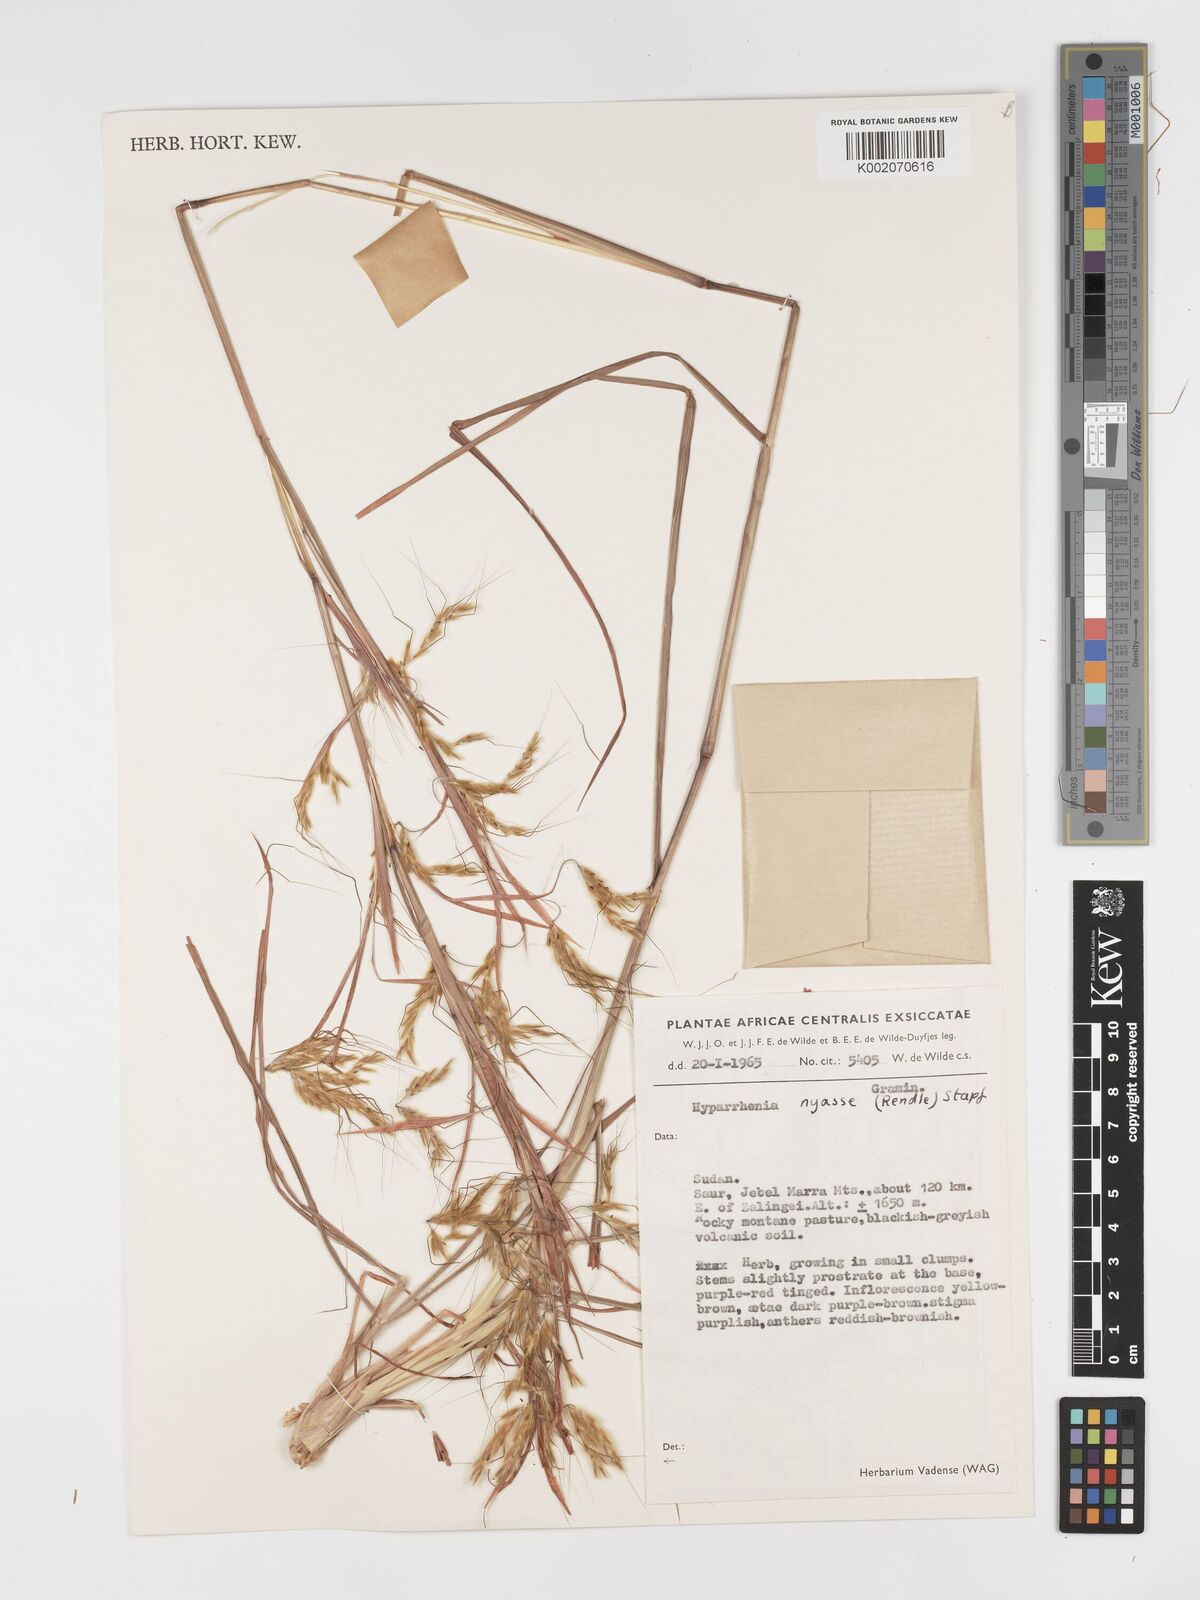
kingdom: Plantae
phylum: Tracheophyta
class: Liliopsida
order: Poales
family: Poaceae
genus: Hyparrhenia
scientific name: Hyparrhenia nyassae
